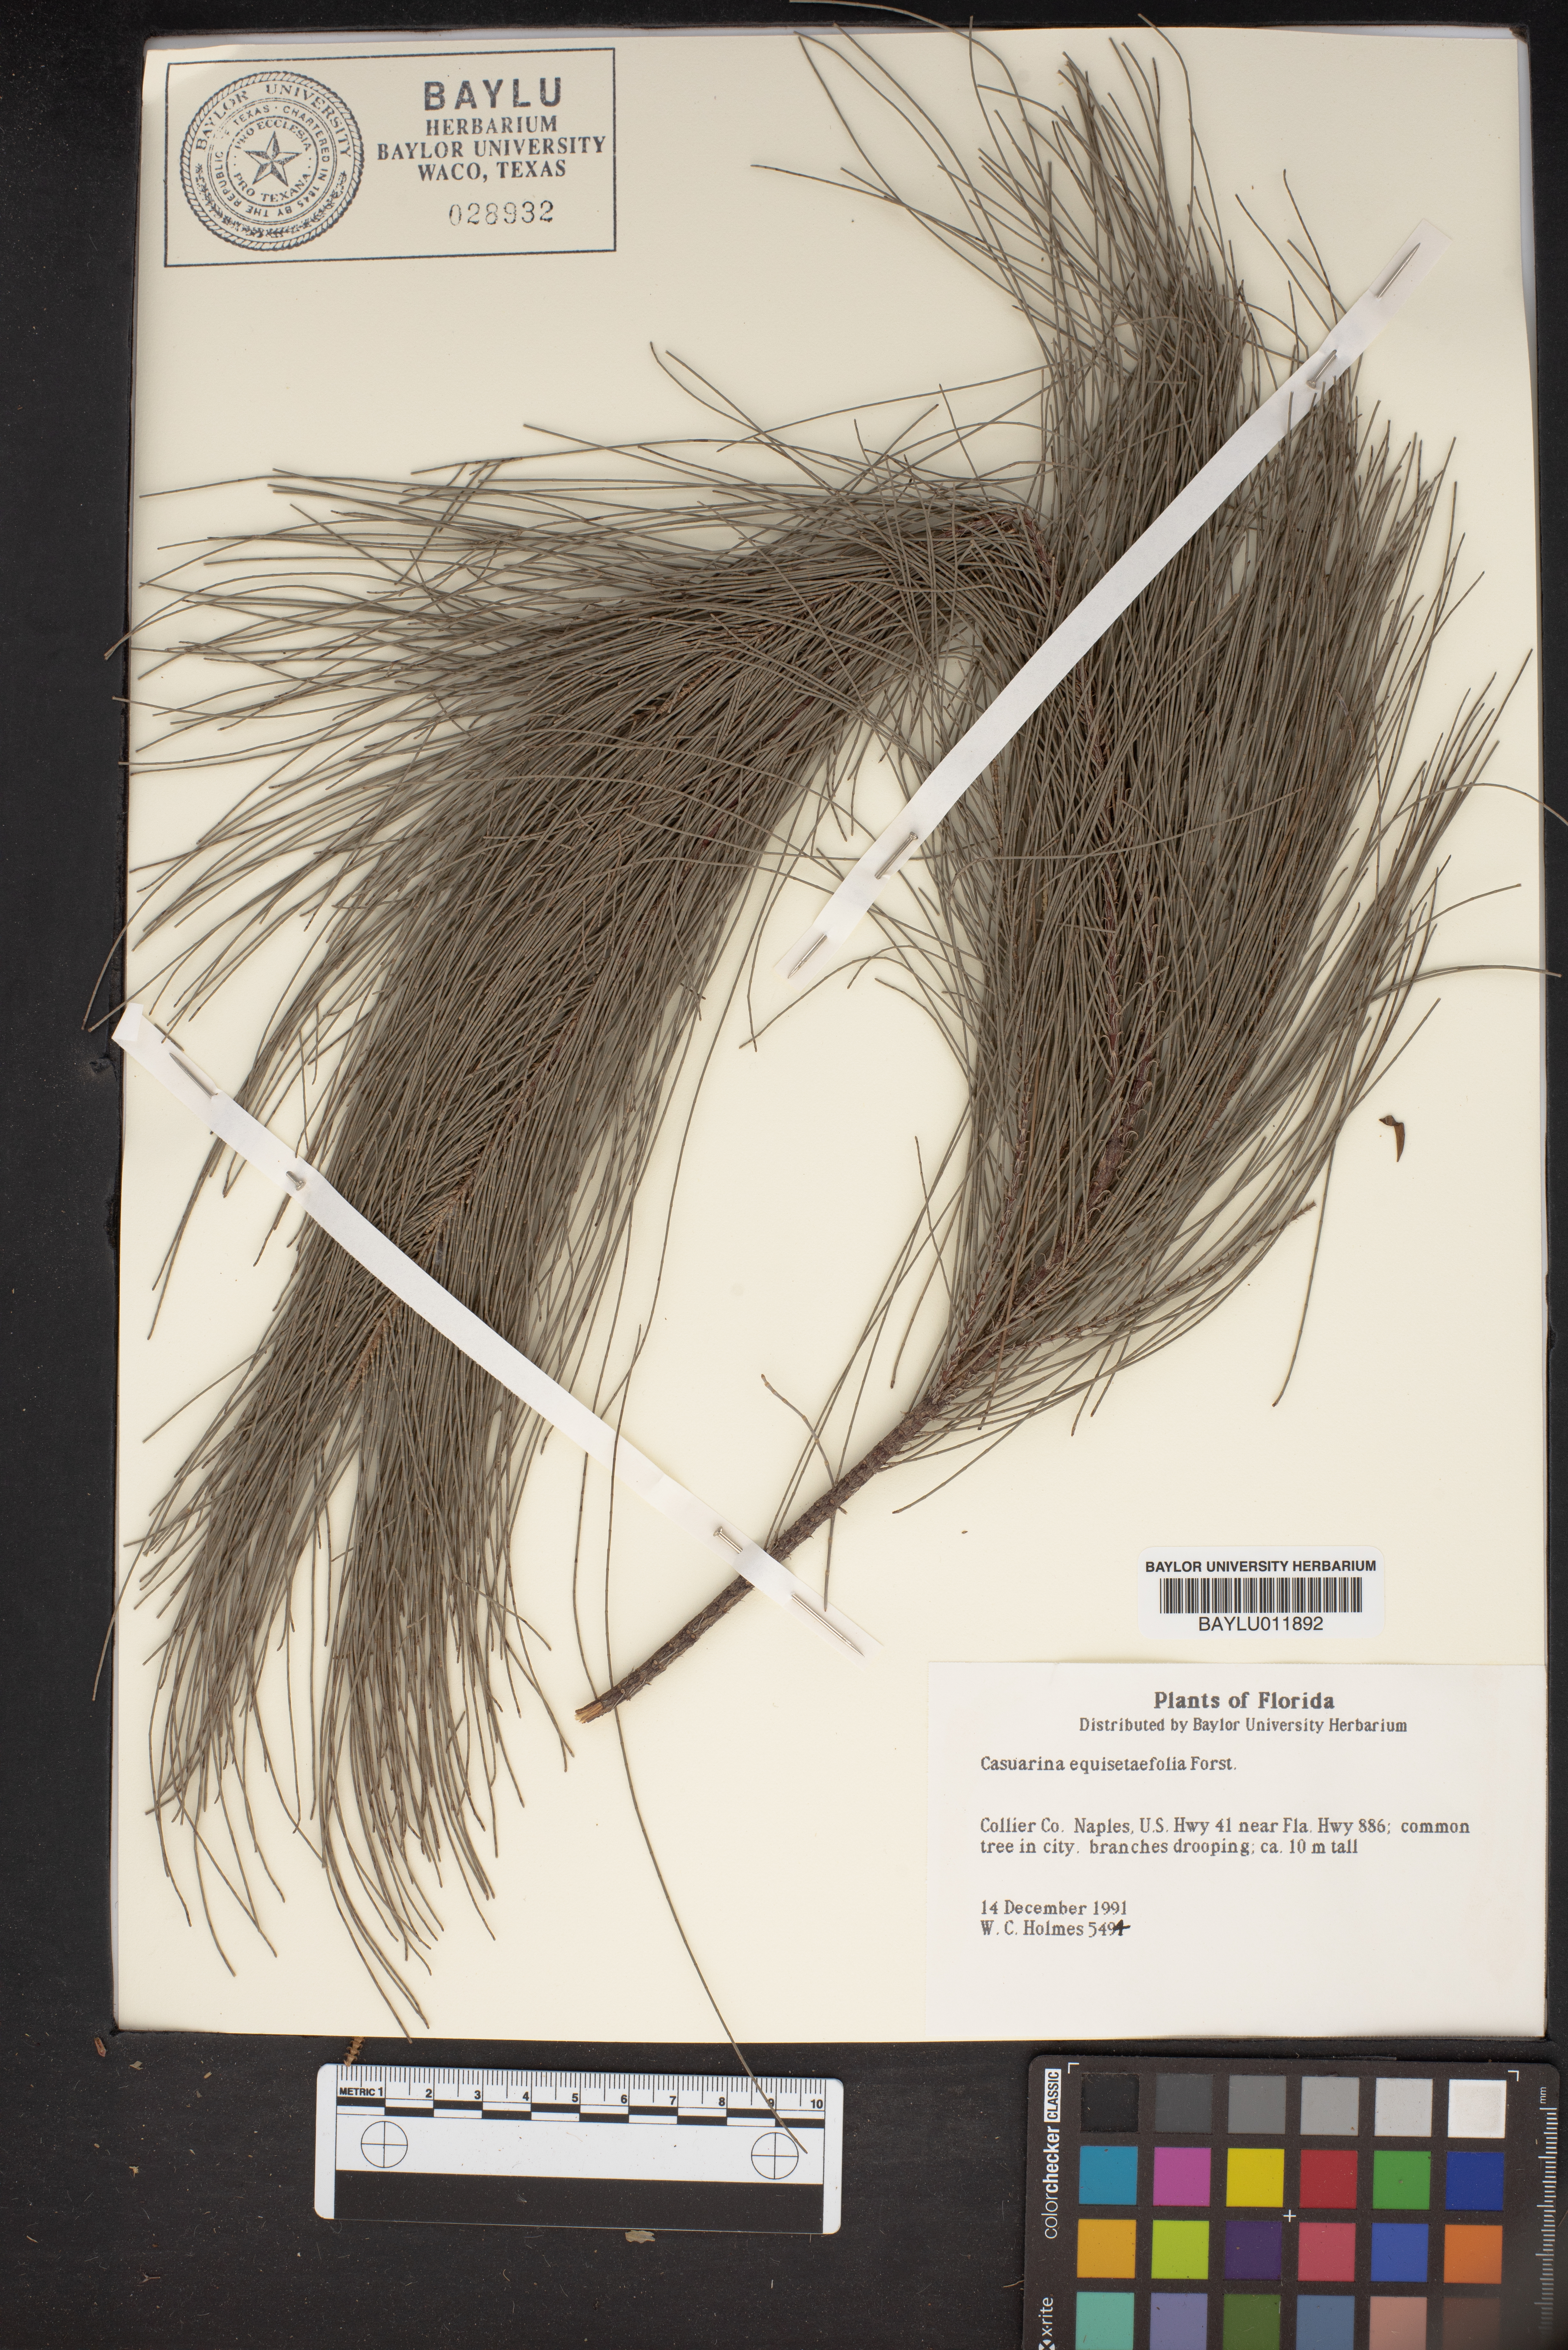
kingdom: Plantae
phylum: Tracheophyta
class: Magnoliopsida
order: Fagales
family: Casuarinaceae
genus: Casuarina
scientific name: Casuarina equisetifolia
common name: Beach sheoak
